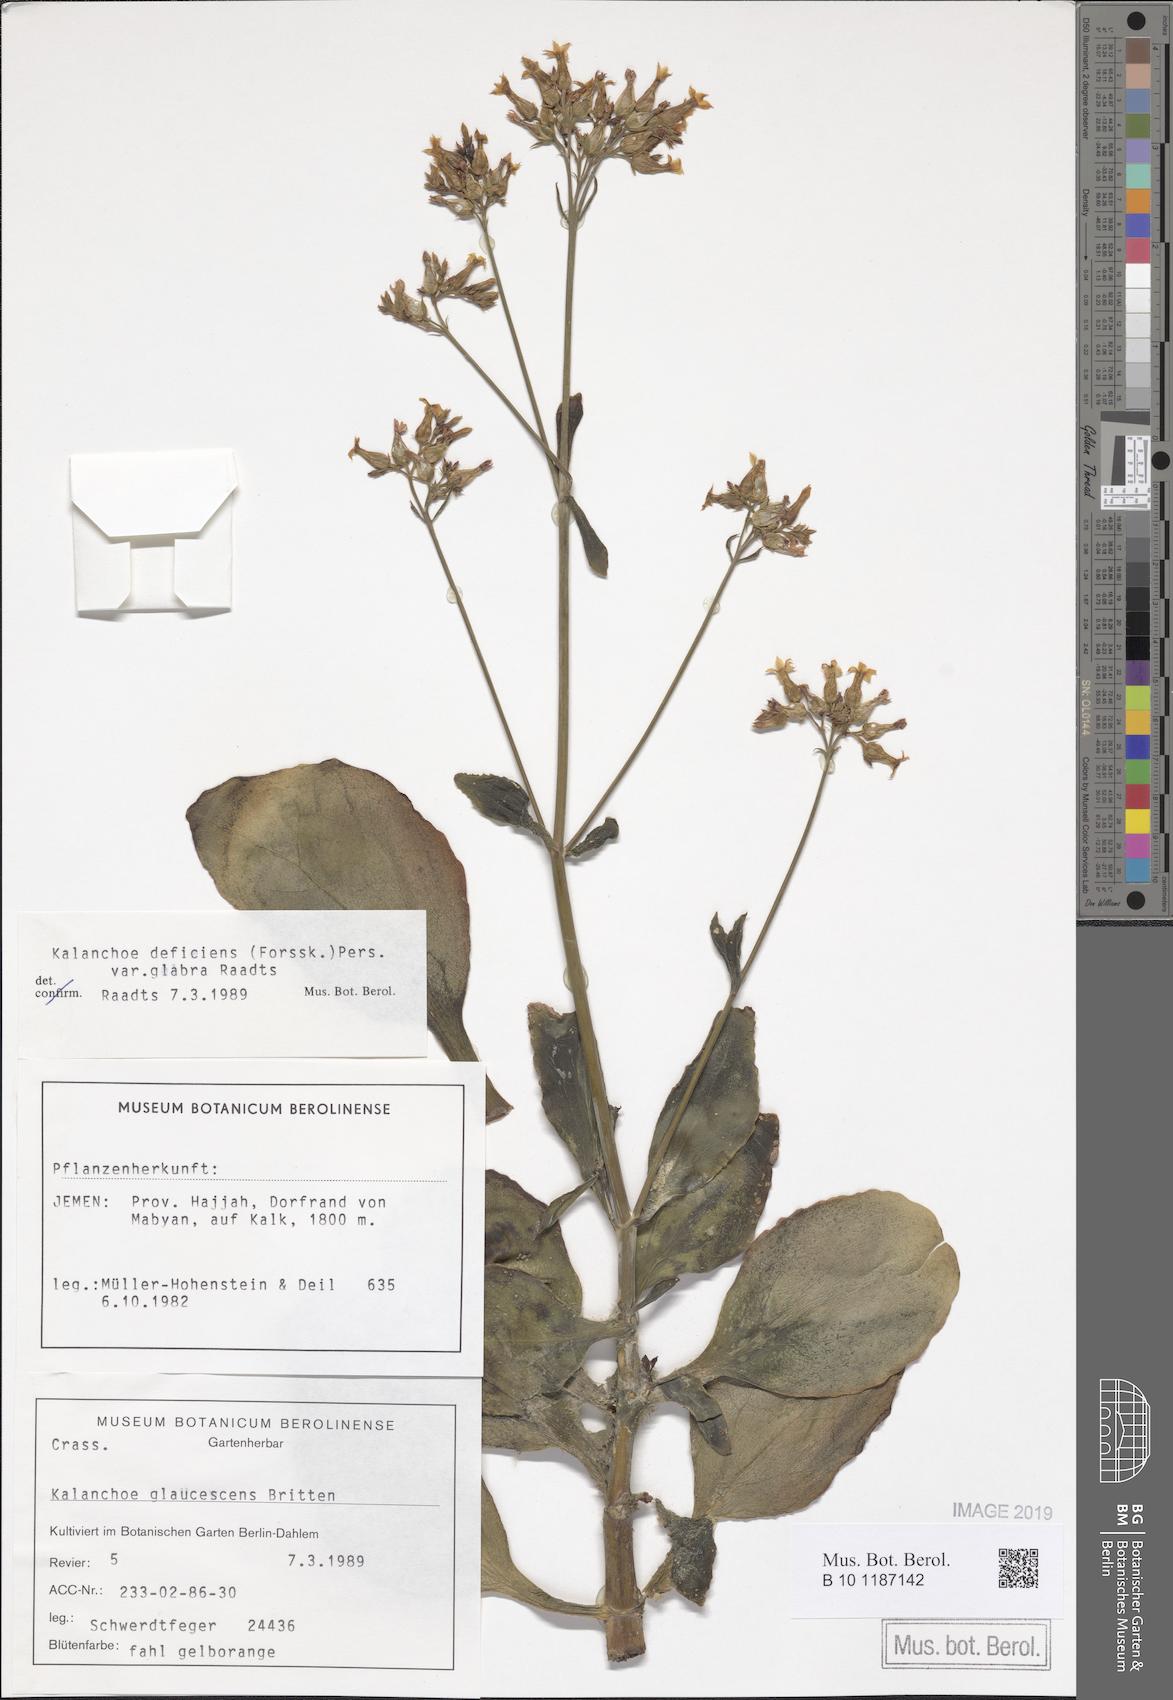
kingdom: Plantae
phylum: Tracheophyta
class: Magnoliopsida
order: Saxifragales
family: Crassulaceae
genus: Kalanchoe
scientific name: Kalanchoe deficiens
